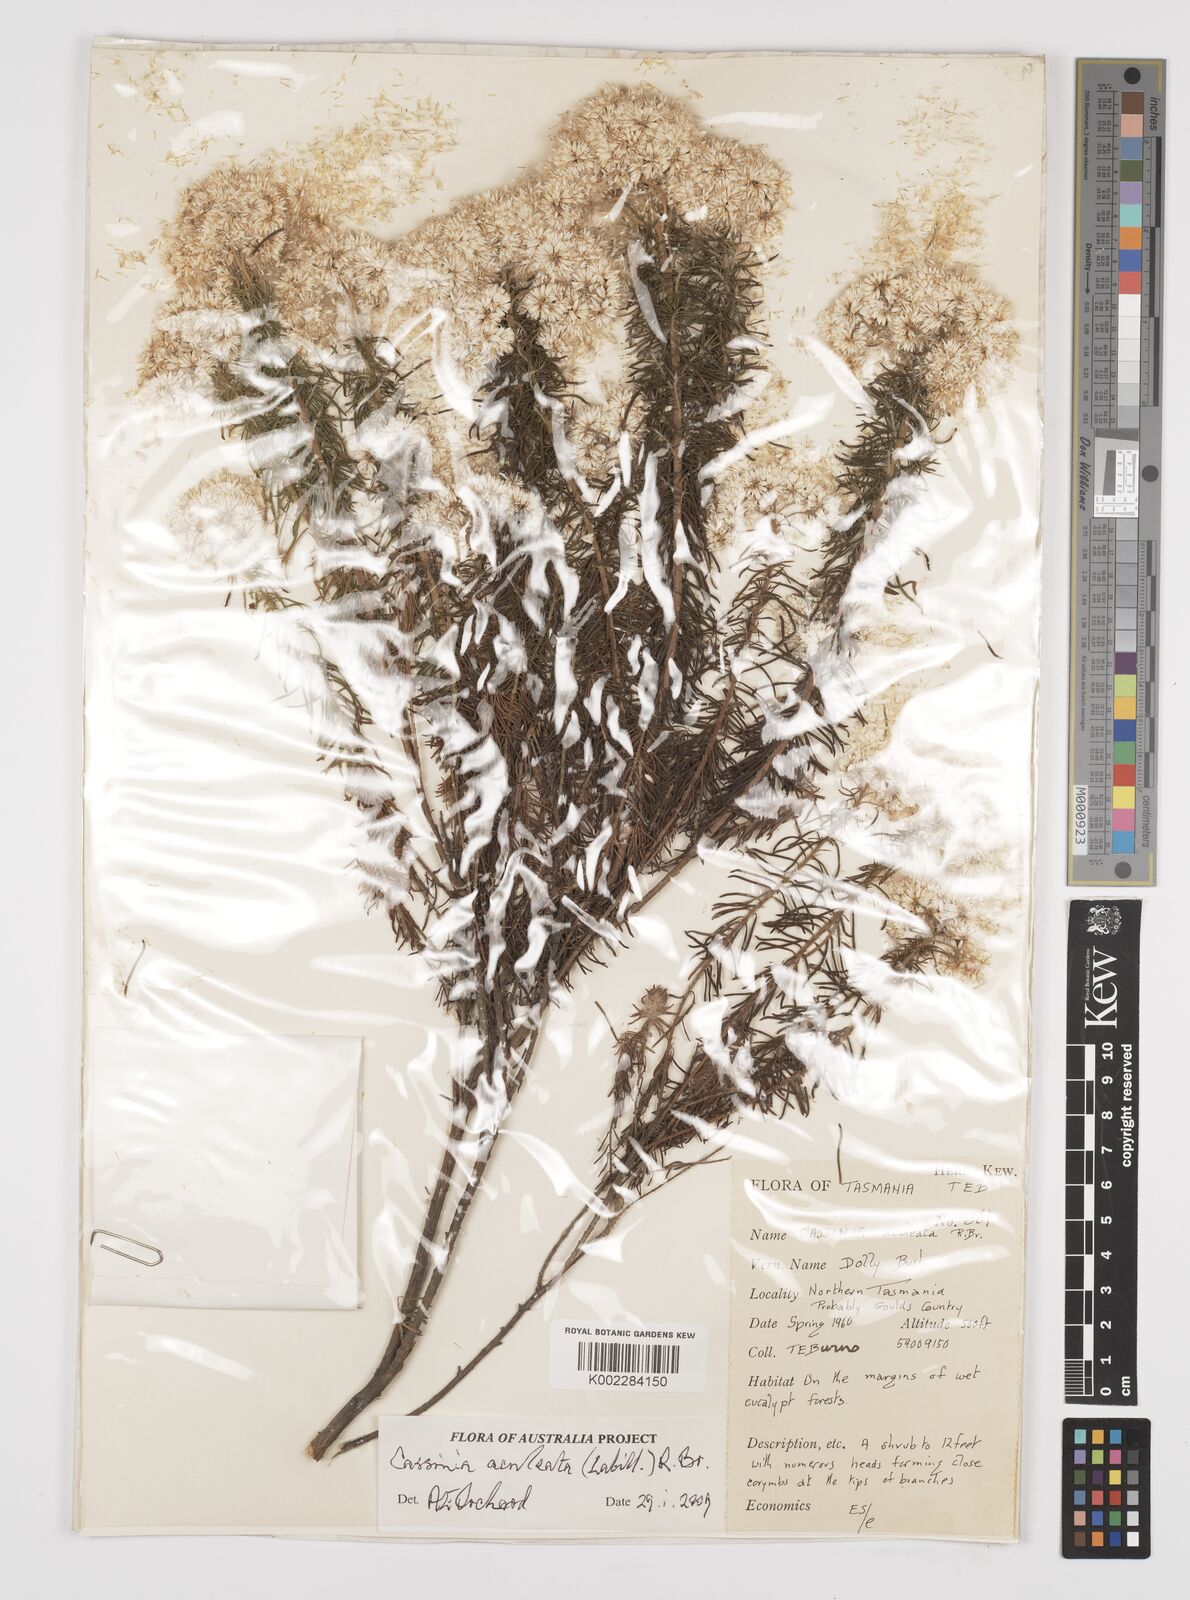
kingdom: Plantae
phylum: Tracheophyta
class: Magnoliopsida
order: Asterales
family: Asteraceae
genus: Cassinia
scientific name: Cassinia aculeata
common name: Australian tauhinu
